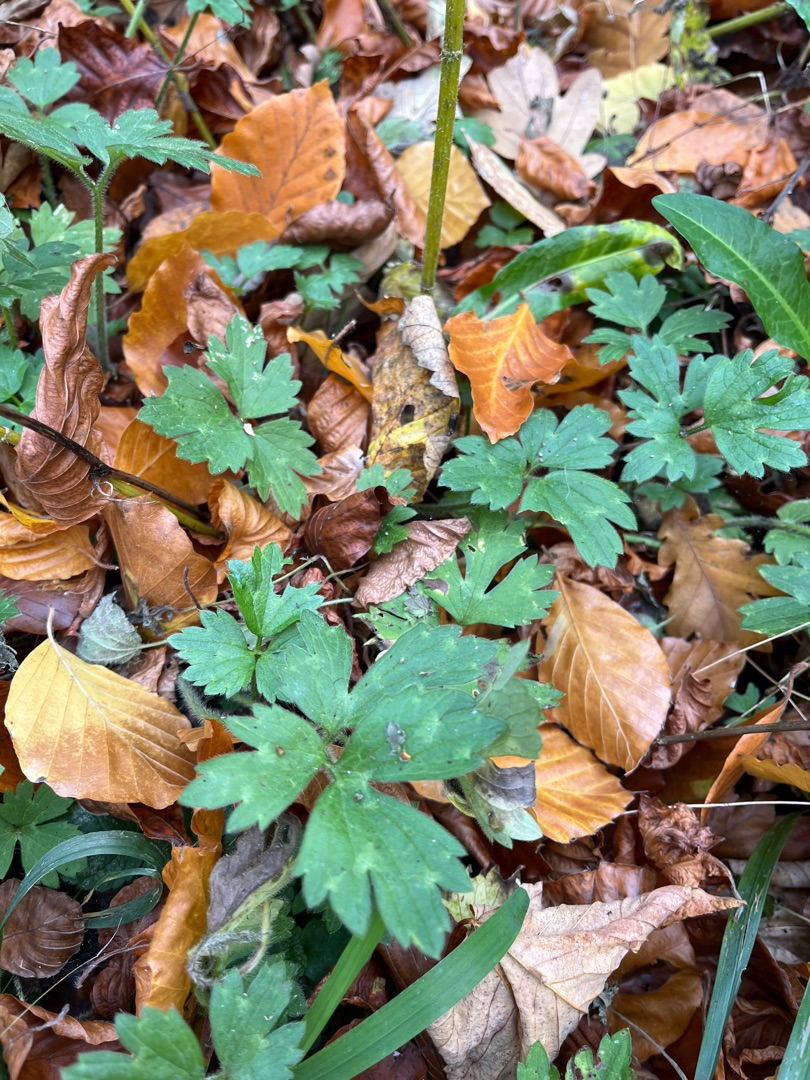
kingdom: Plantae
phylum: Tracheophyta
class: Magnoliopsida
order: Ranunculales
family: Ranunculaceae
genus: Ranunculus
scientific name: Ranunculus repens
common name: Lav ranunkel
